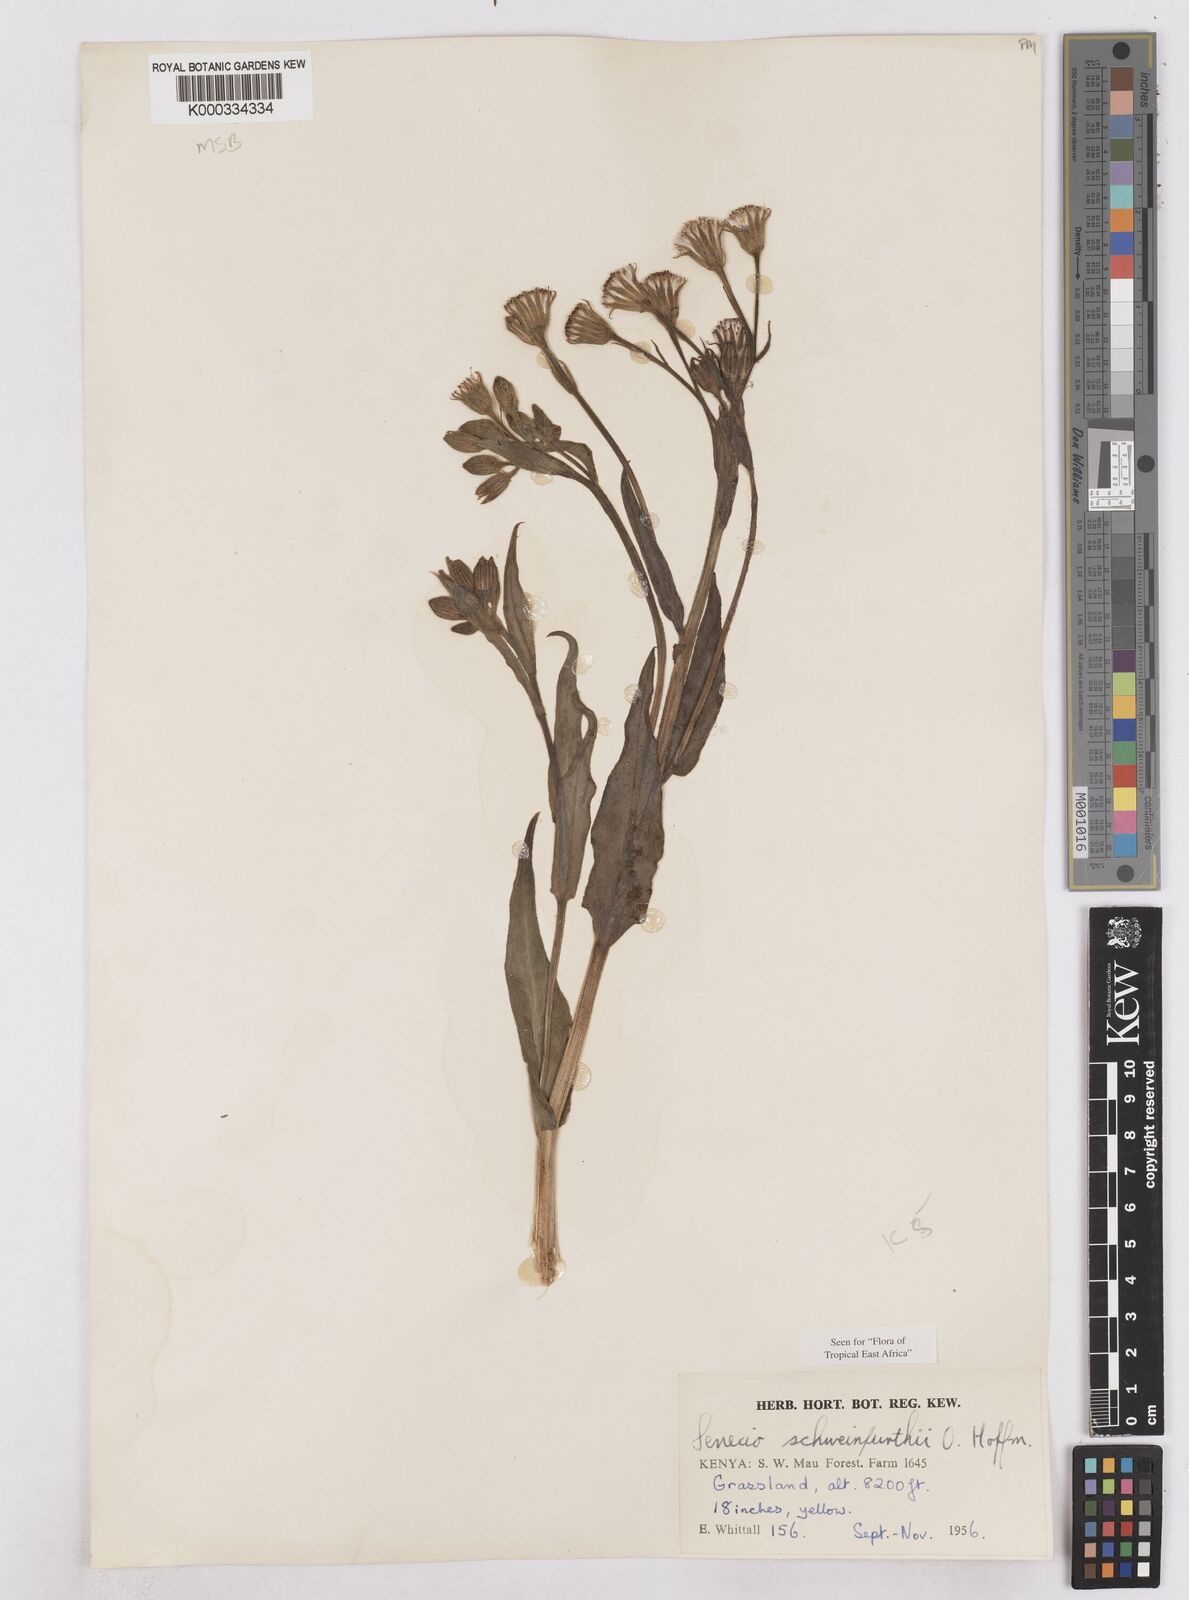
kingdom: Plantae
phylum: Tracheophyta
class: Magnoliopsida
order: Asterales
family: Asteraceae
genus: Senecio
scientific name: Senecio schweinfurthii
